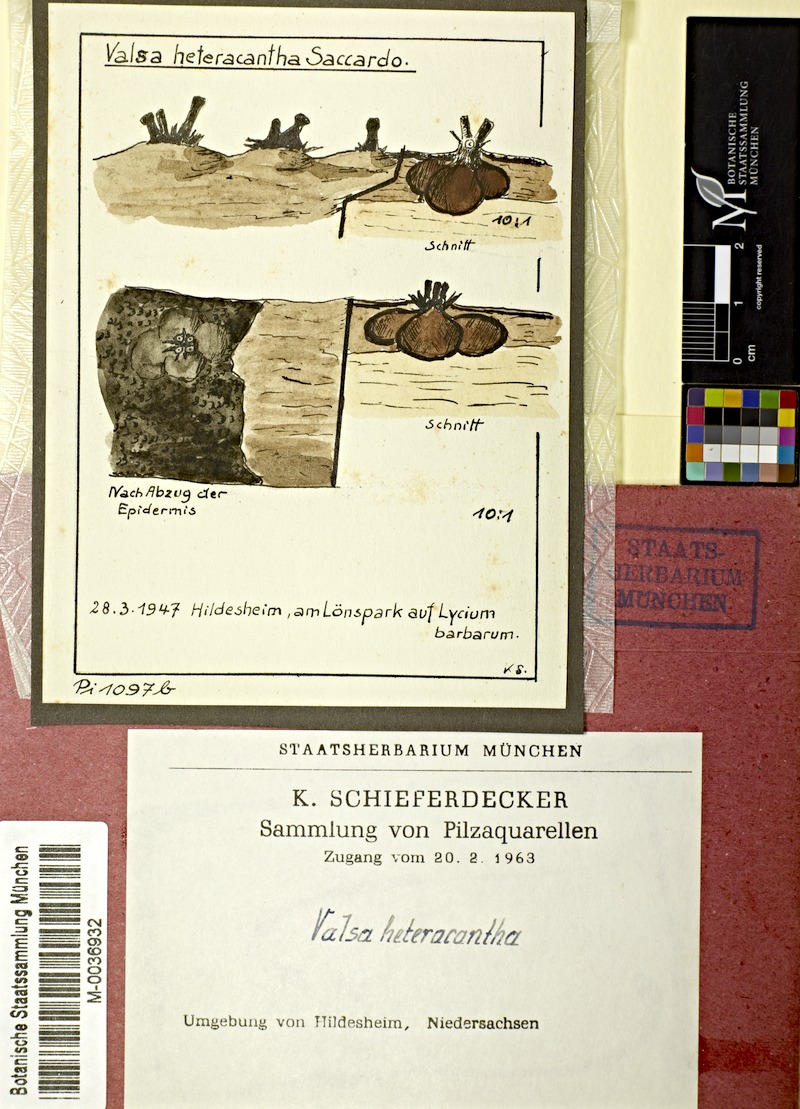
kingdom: Plantae
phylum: Tracheophyta
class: Magnoliopsida
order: Solanales
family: Solanaceae
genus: Lycium
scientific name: Lycium barbarum
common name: Duke of argyll's teaplant
